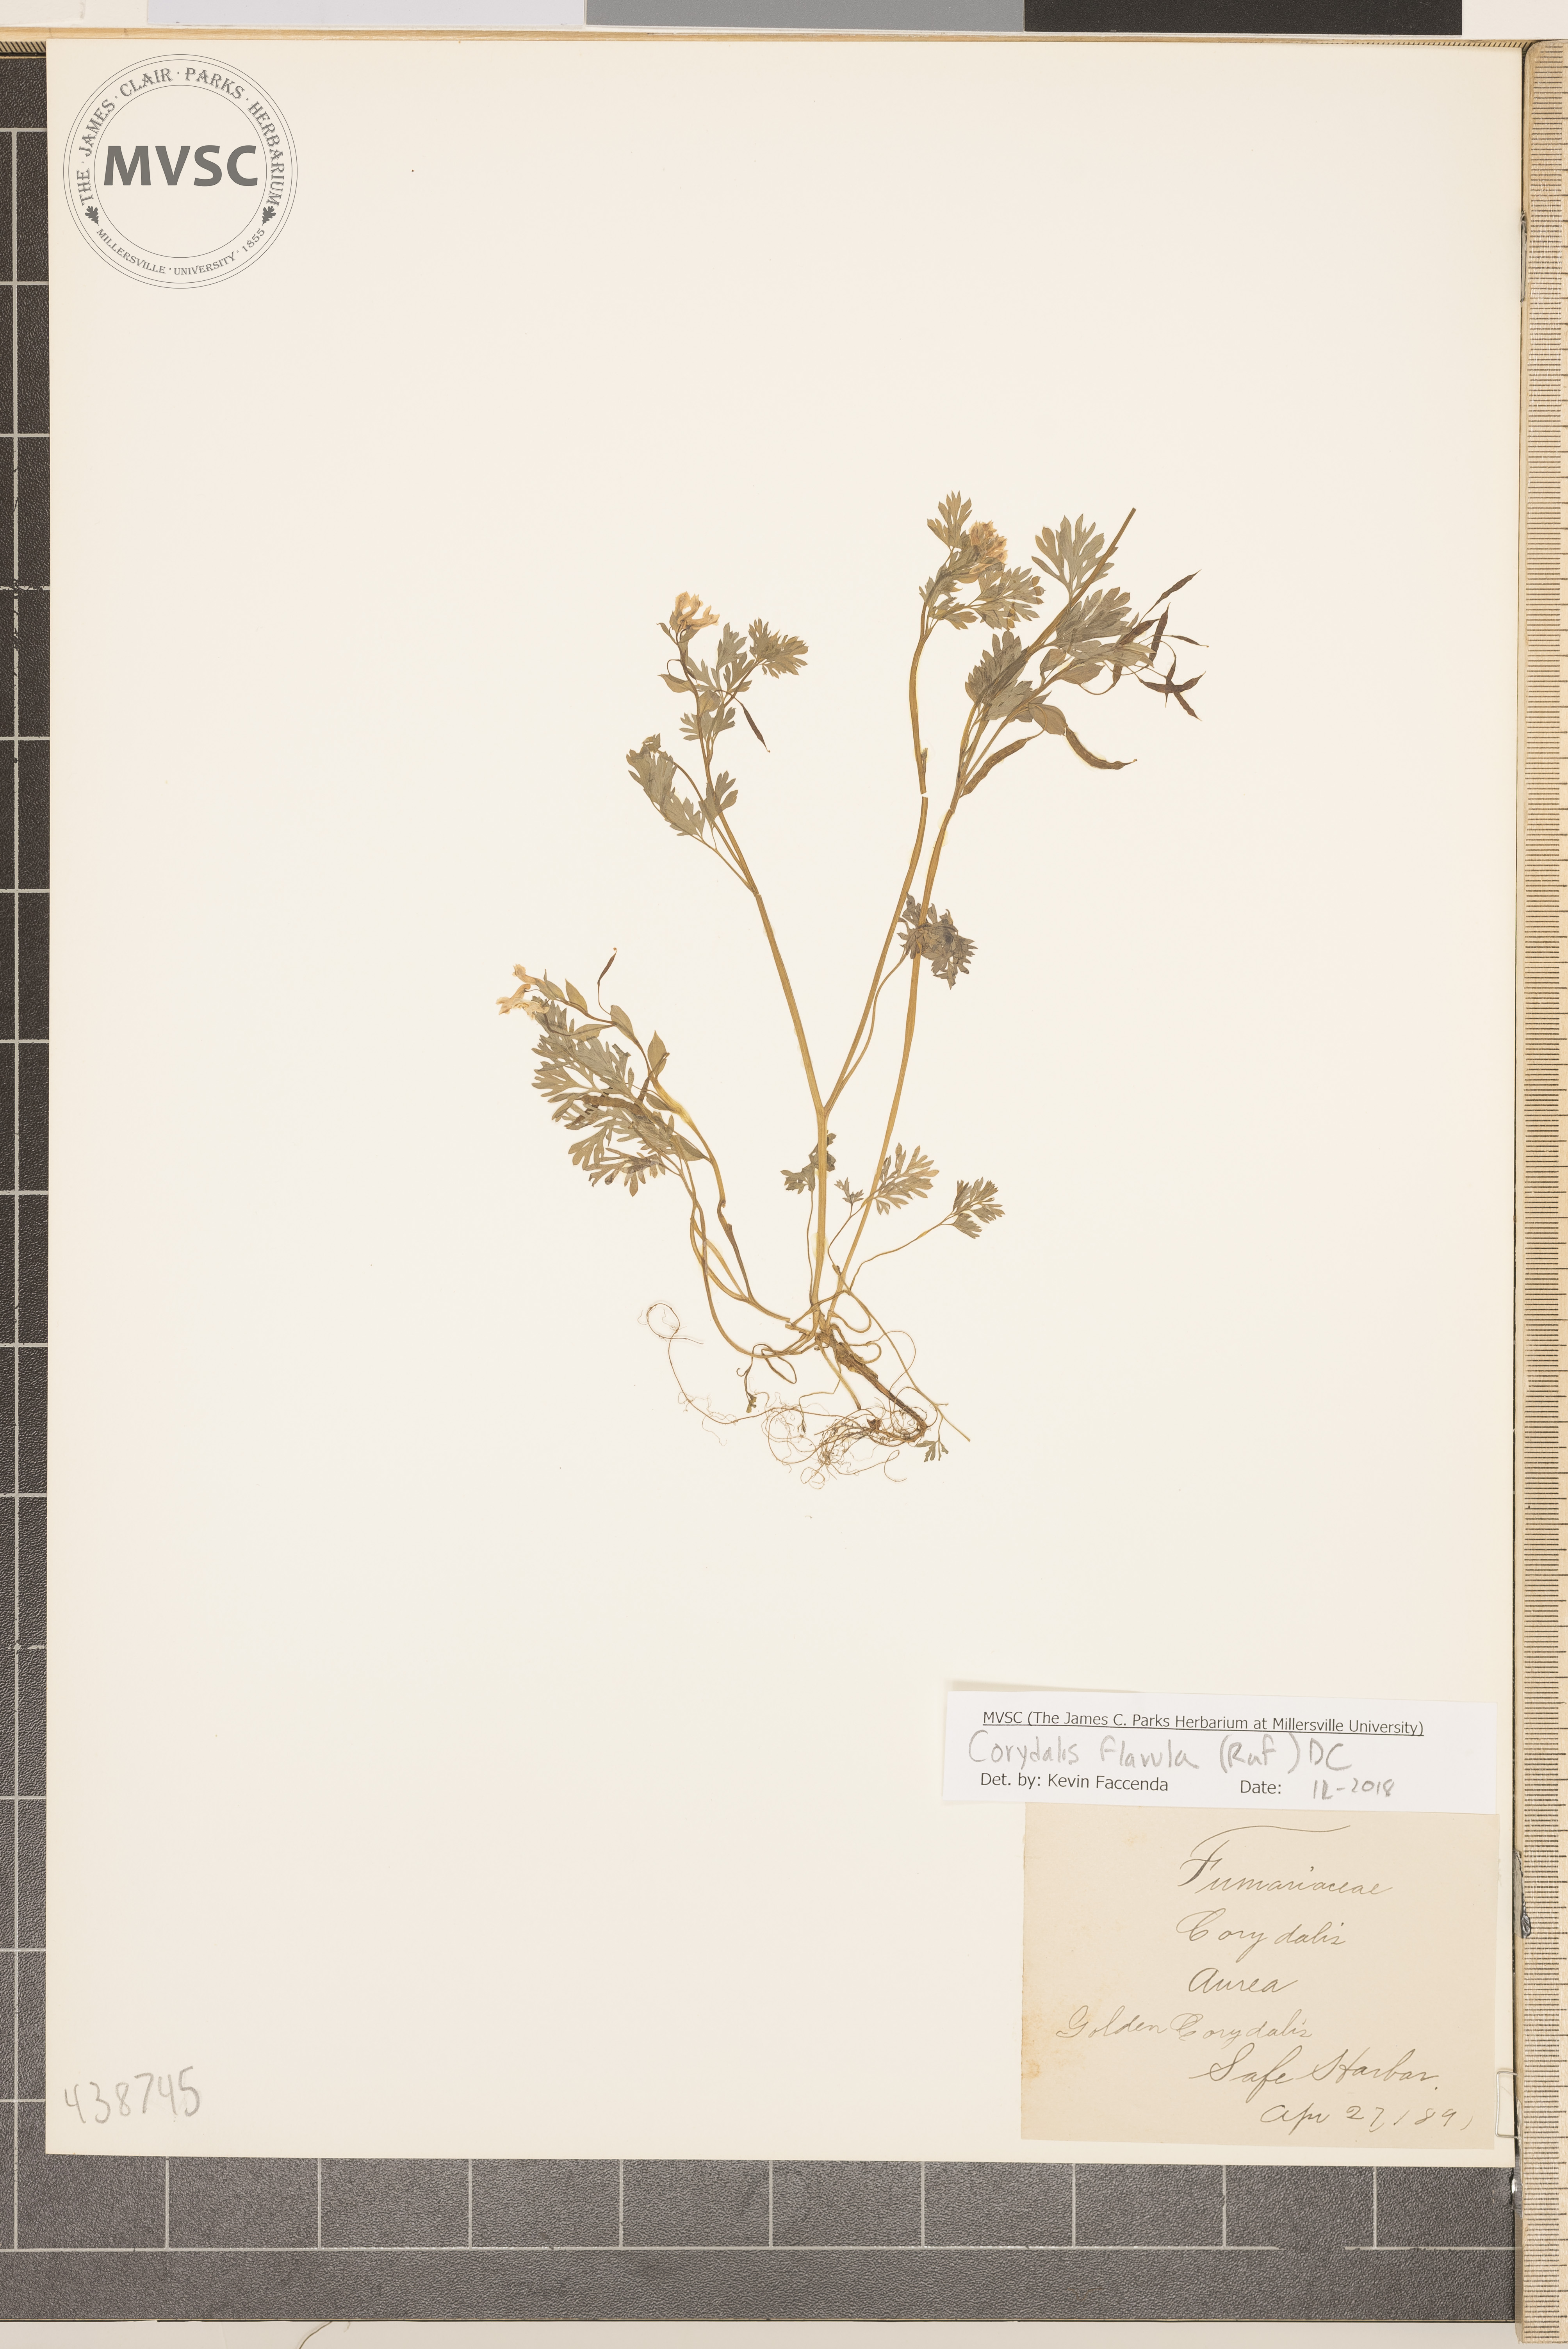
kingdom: Plantae
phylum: Tracheophyta
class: Magnoliopsida
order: Ranunculales
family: Papaveraceae
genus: Corydalis
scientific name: Corydalis flavula
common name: Golden corydalis
